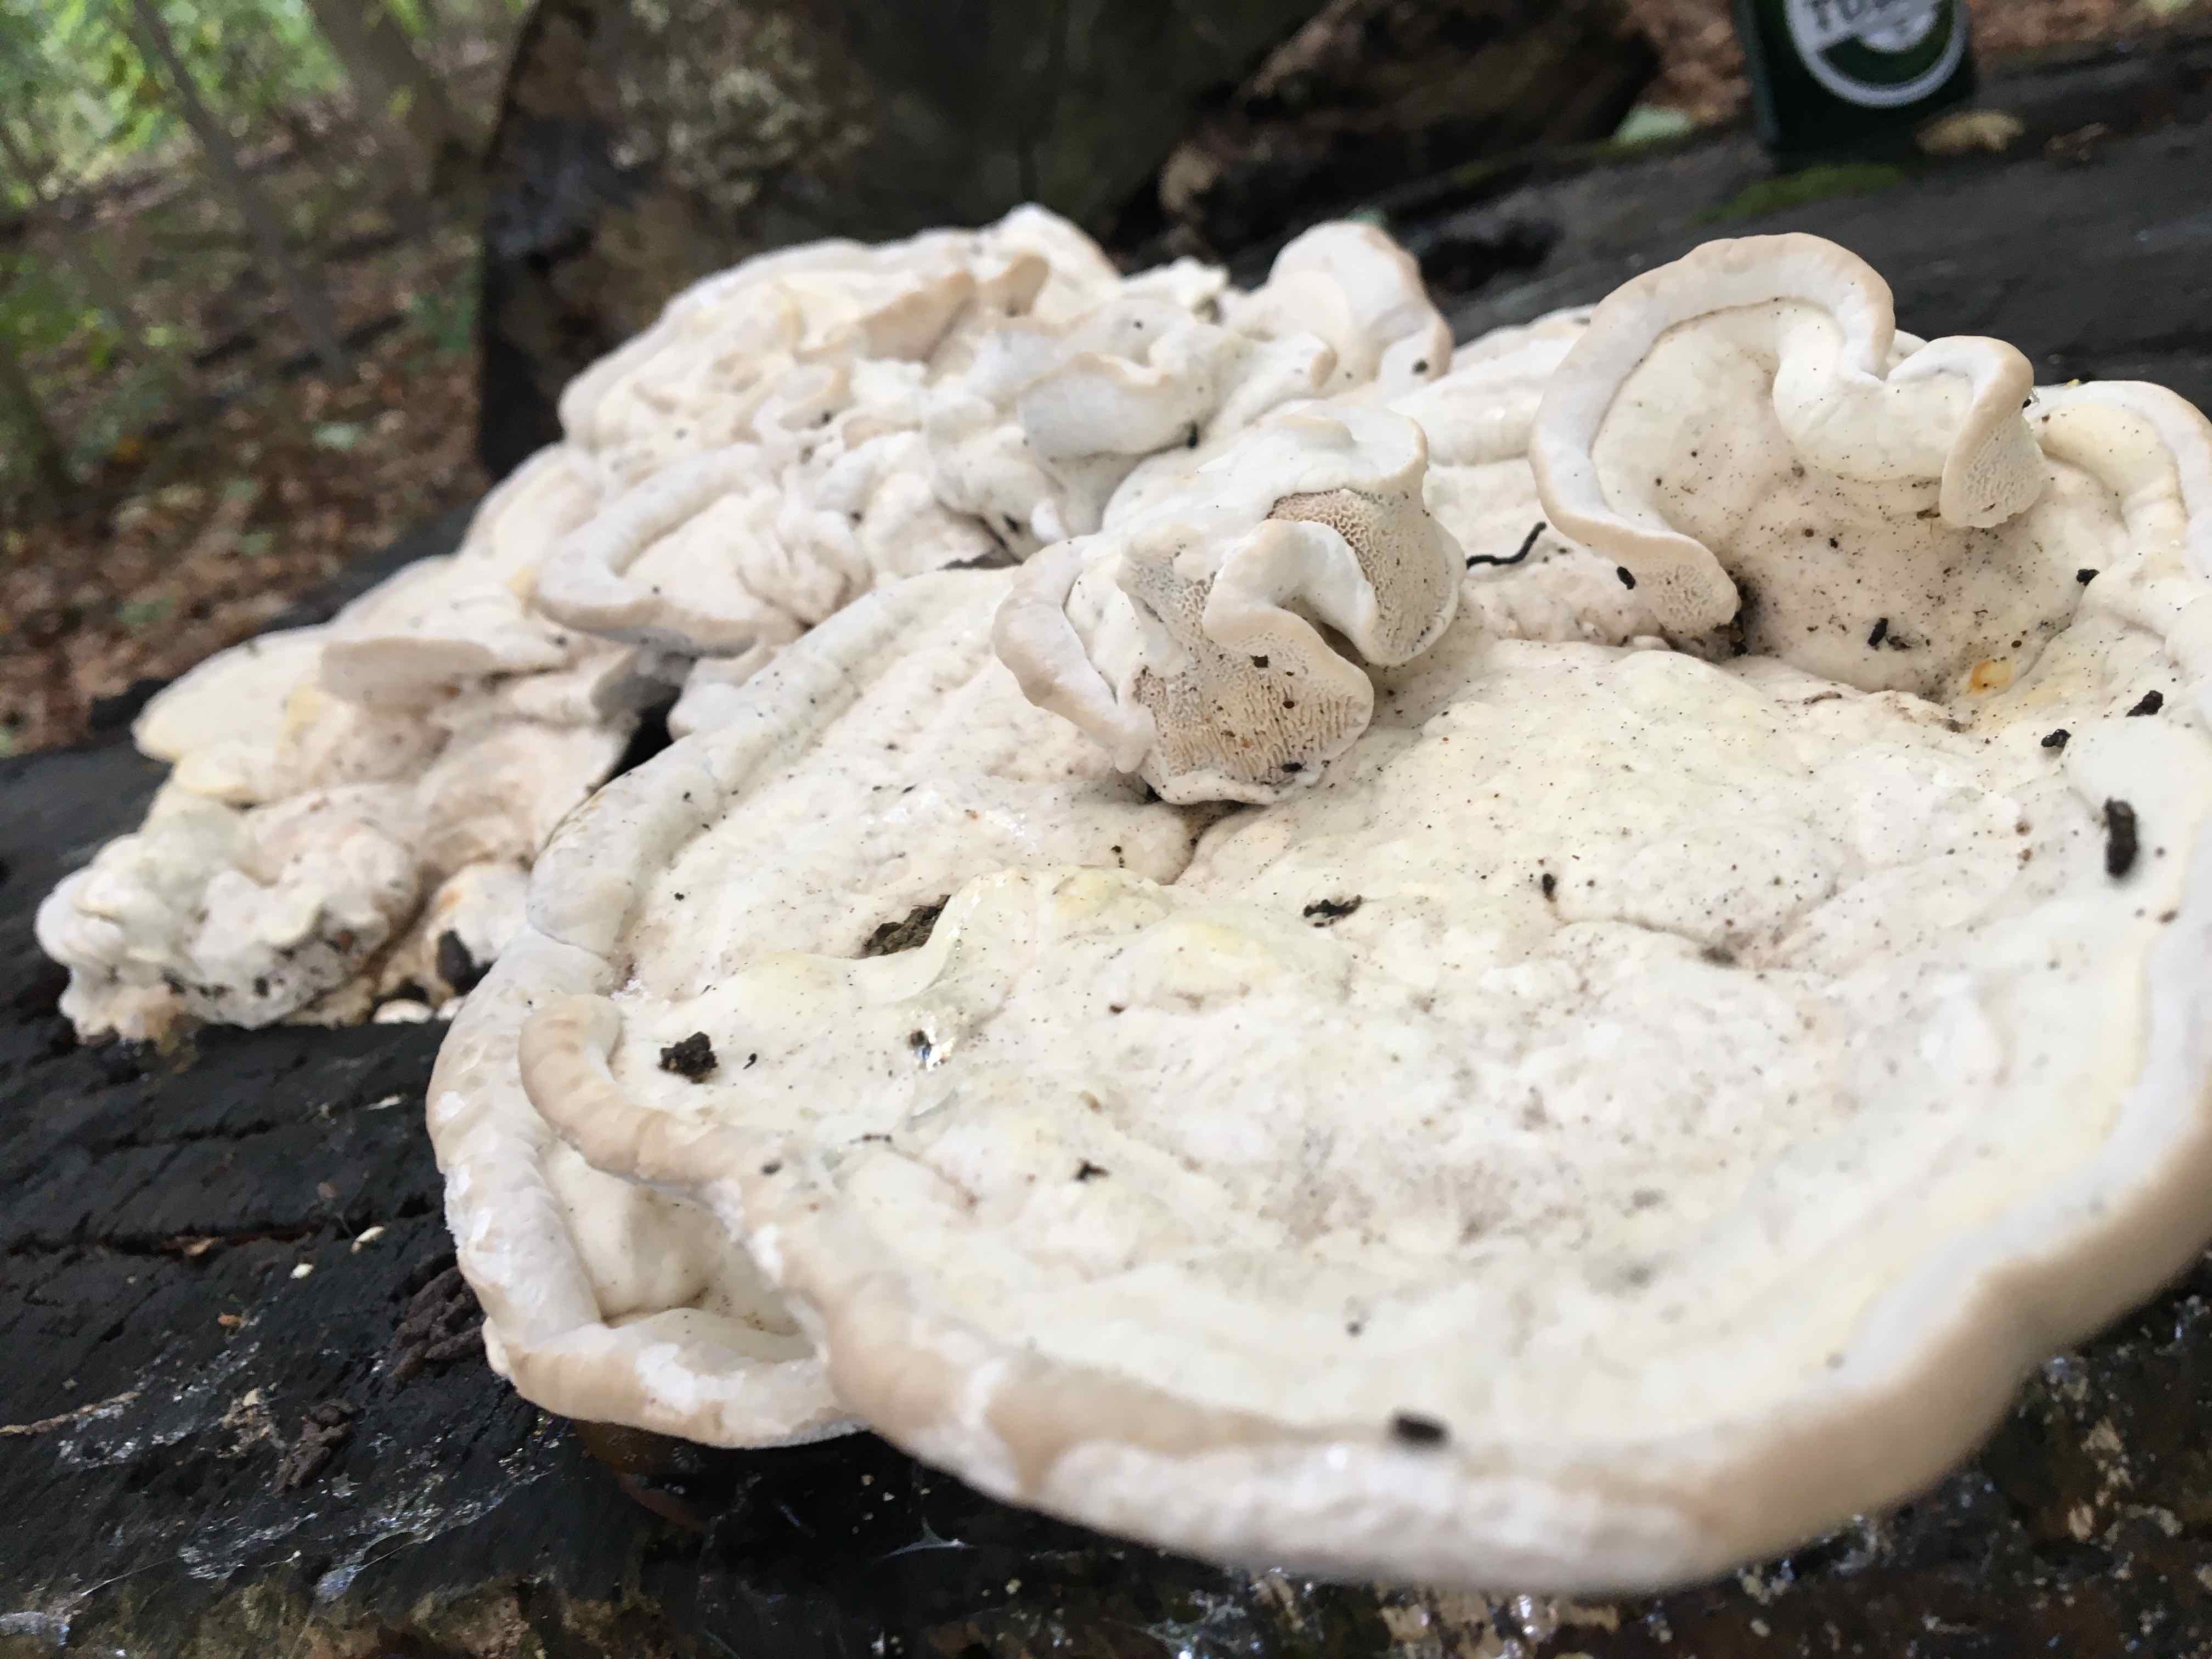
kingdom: Fungi
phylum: Basidiomycota
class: Agaricomycetes
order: Polyporales
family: Polyporaceae
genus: Trametes
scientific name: Trametes hirsuta
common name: håret læderporesvamp
